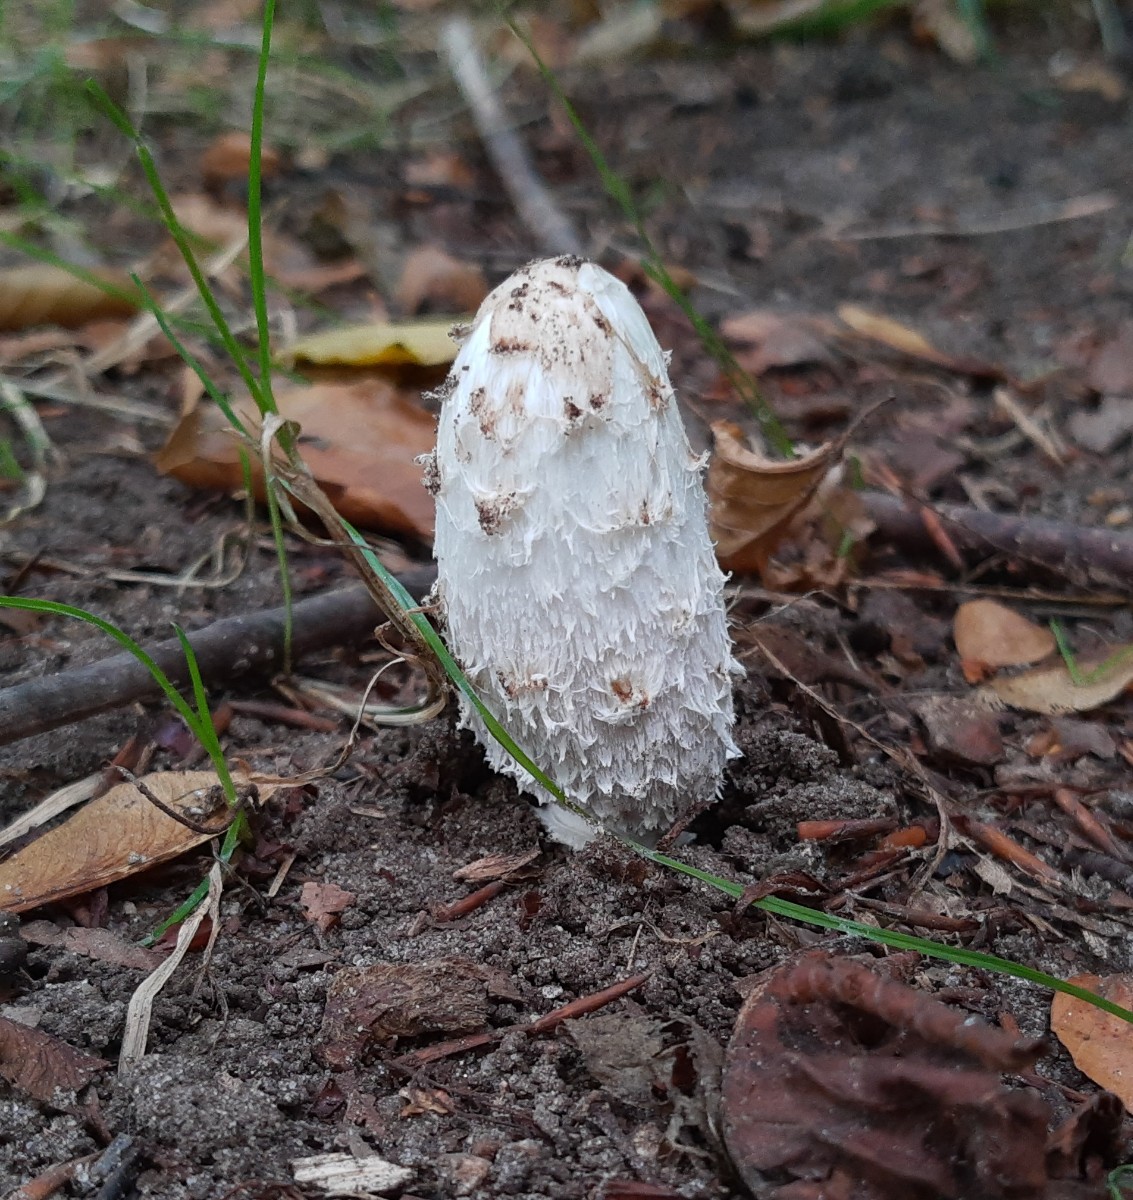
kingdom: Fungi
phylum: Basidiomycota
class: Agaricomycetes
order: Agaricales
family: Agaricaceae
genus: Coprinus
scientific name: Coprinus comatus
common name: stor parykhat
